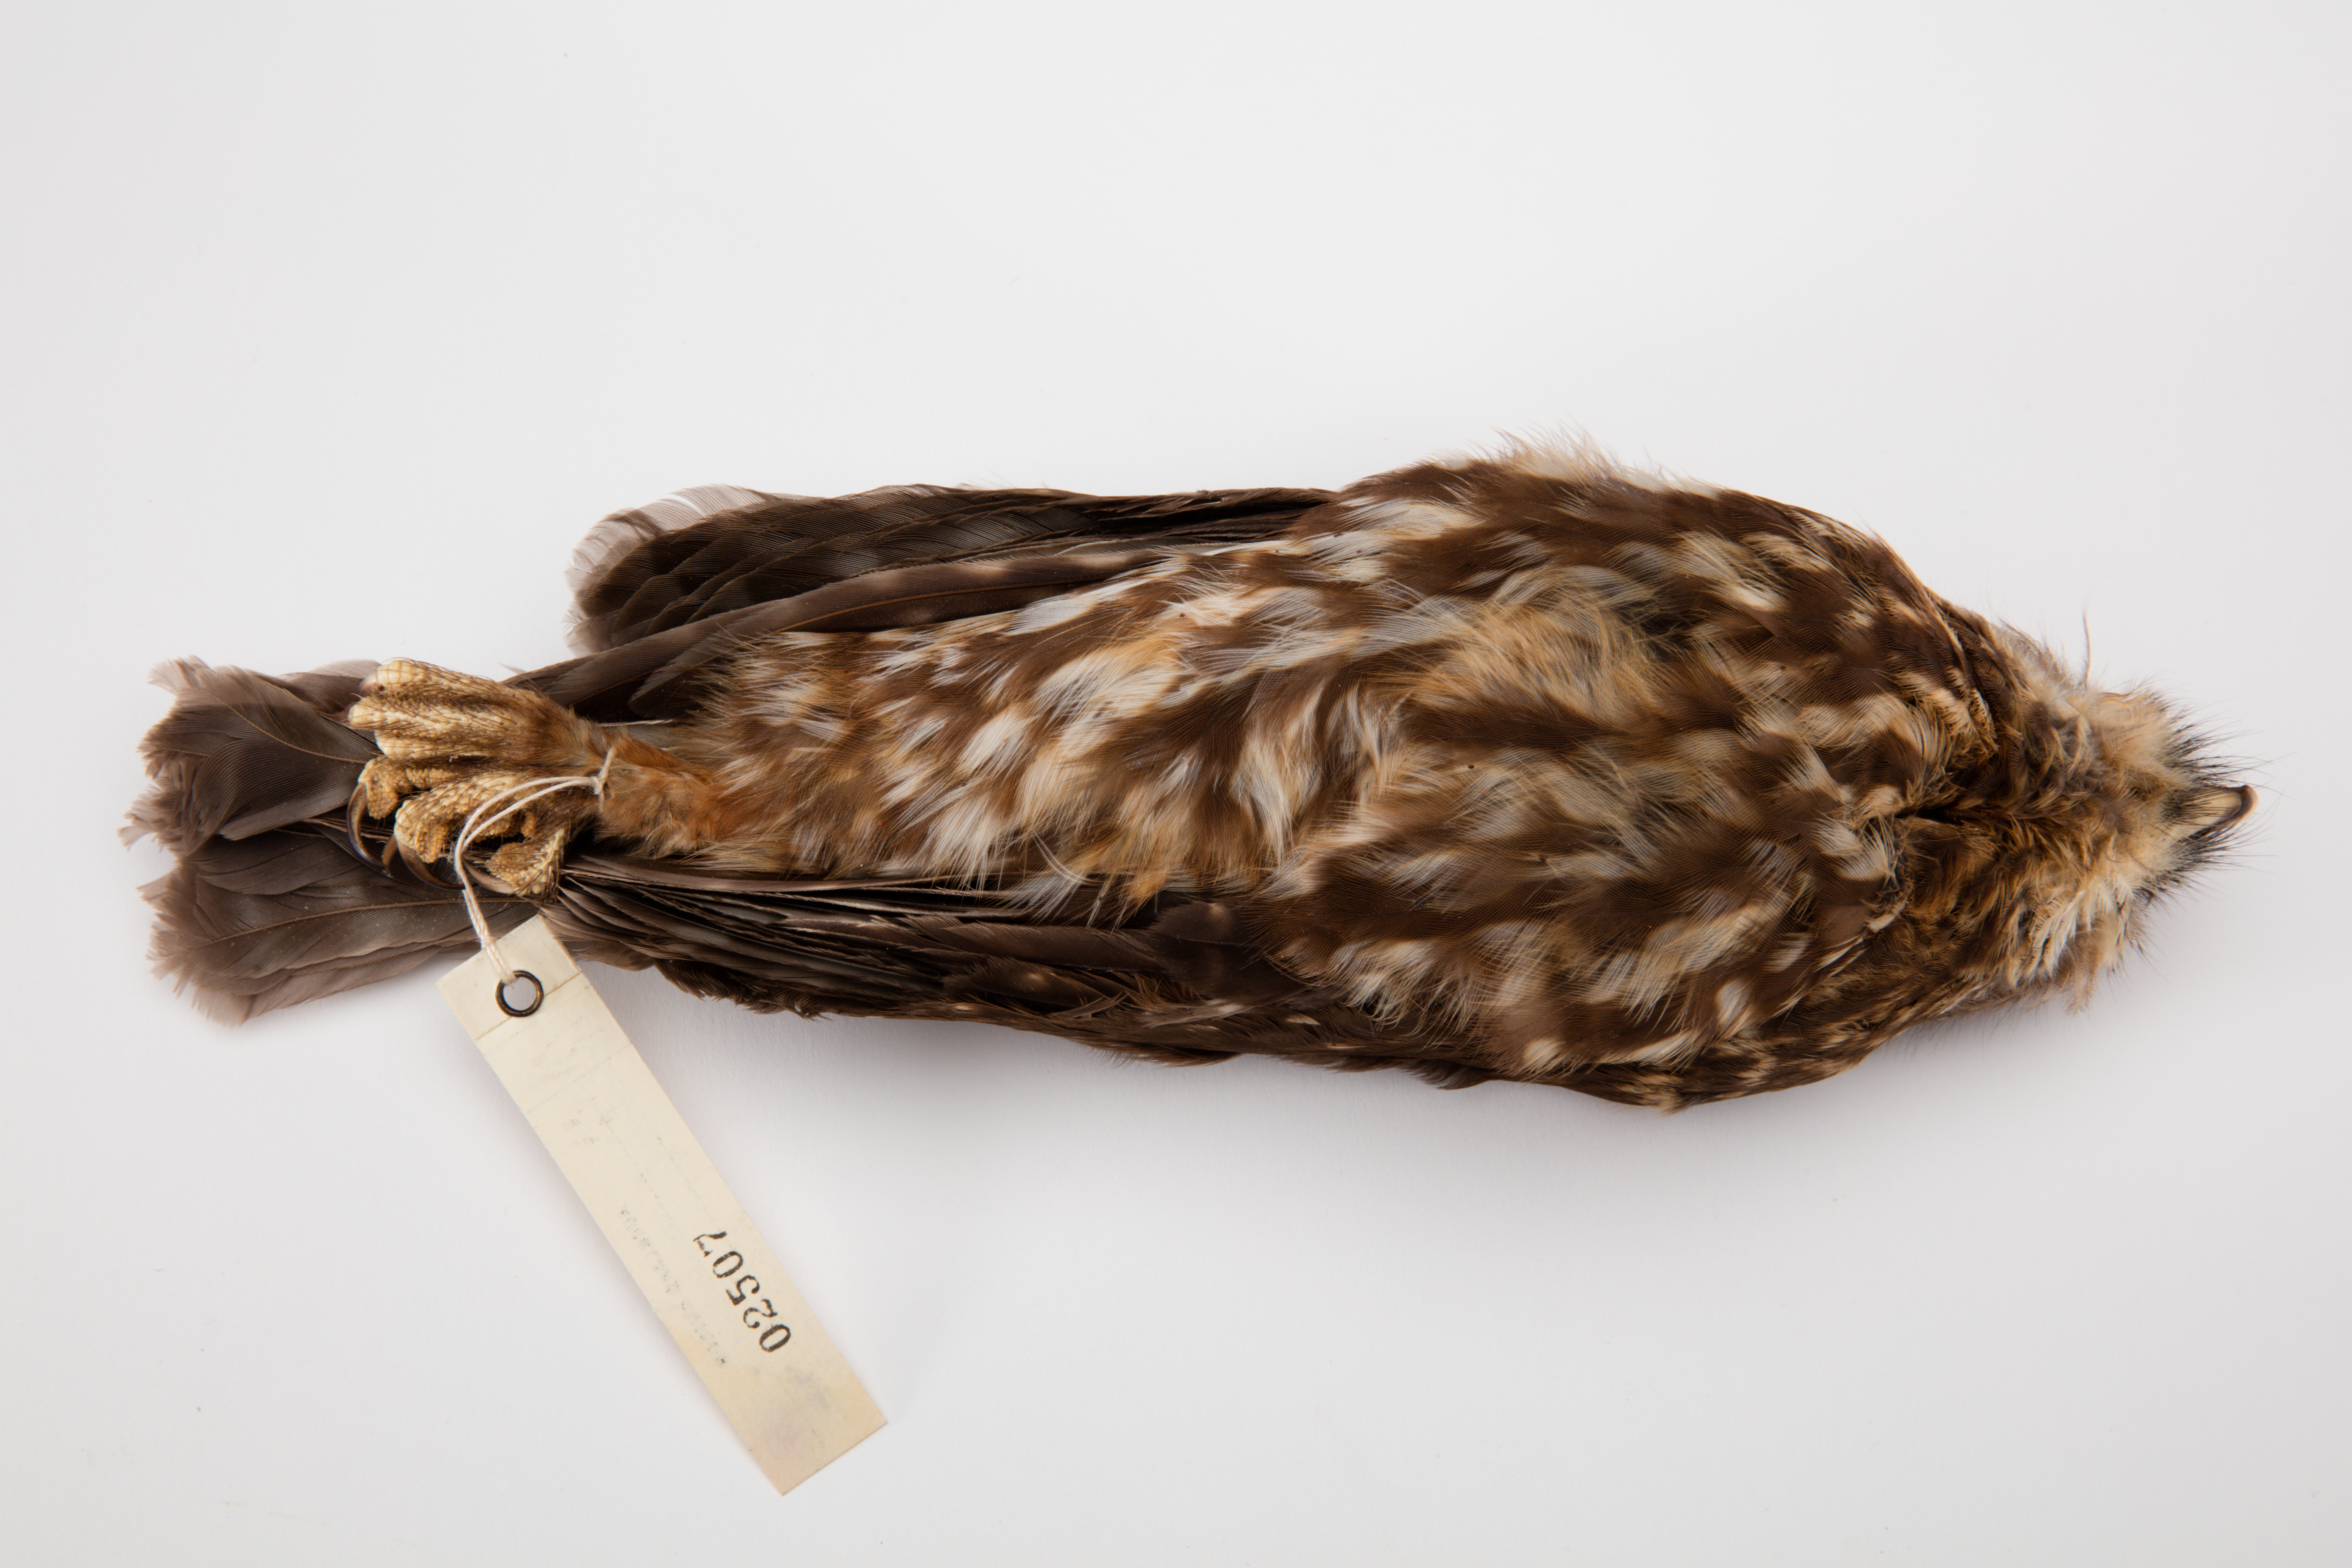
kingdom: Animalia
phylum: Chordata
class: Aves
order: Strigiformes
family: Strigidae
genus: Ninox
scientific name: Ninox novaeseelandiae
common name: Morepork
